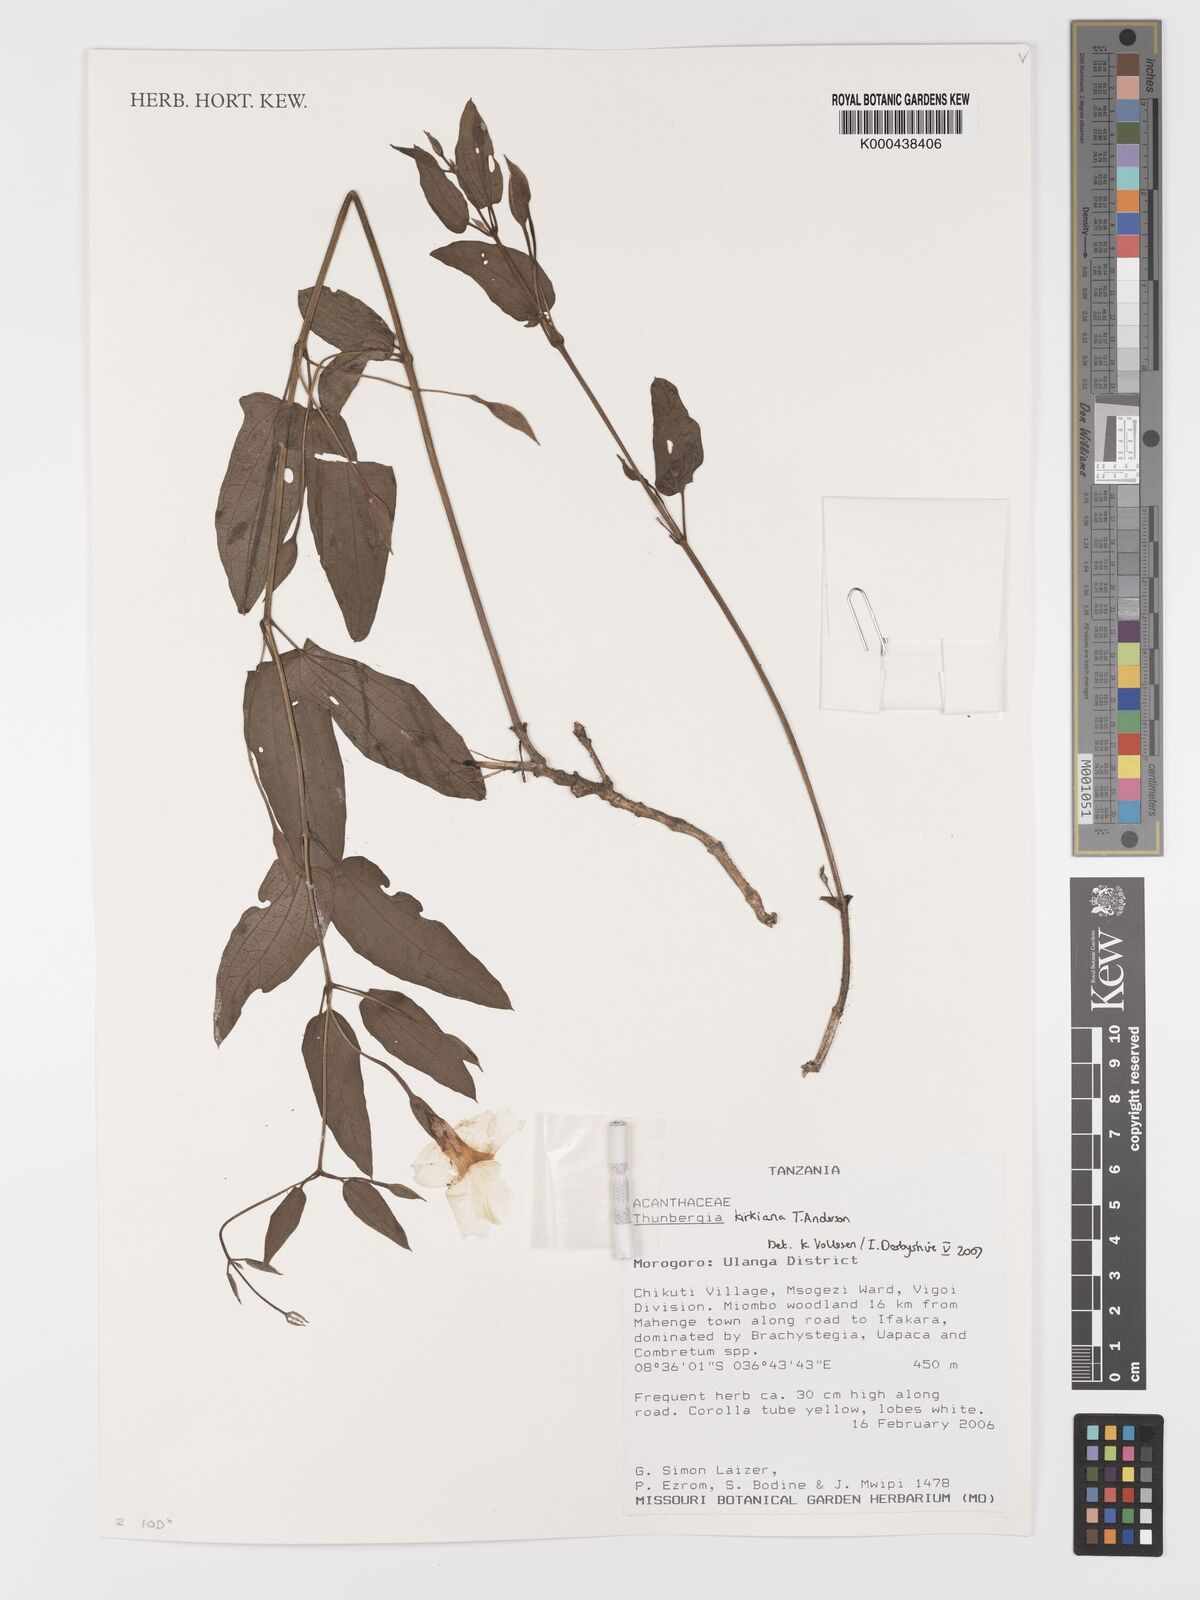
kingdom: Plantae
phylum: Tracheophyta
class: Magnoliopsida
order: Lamiales
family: Acanthaceae
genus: Thunbergia
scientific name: Thunbergia kirkiana
